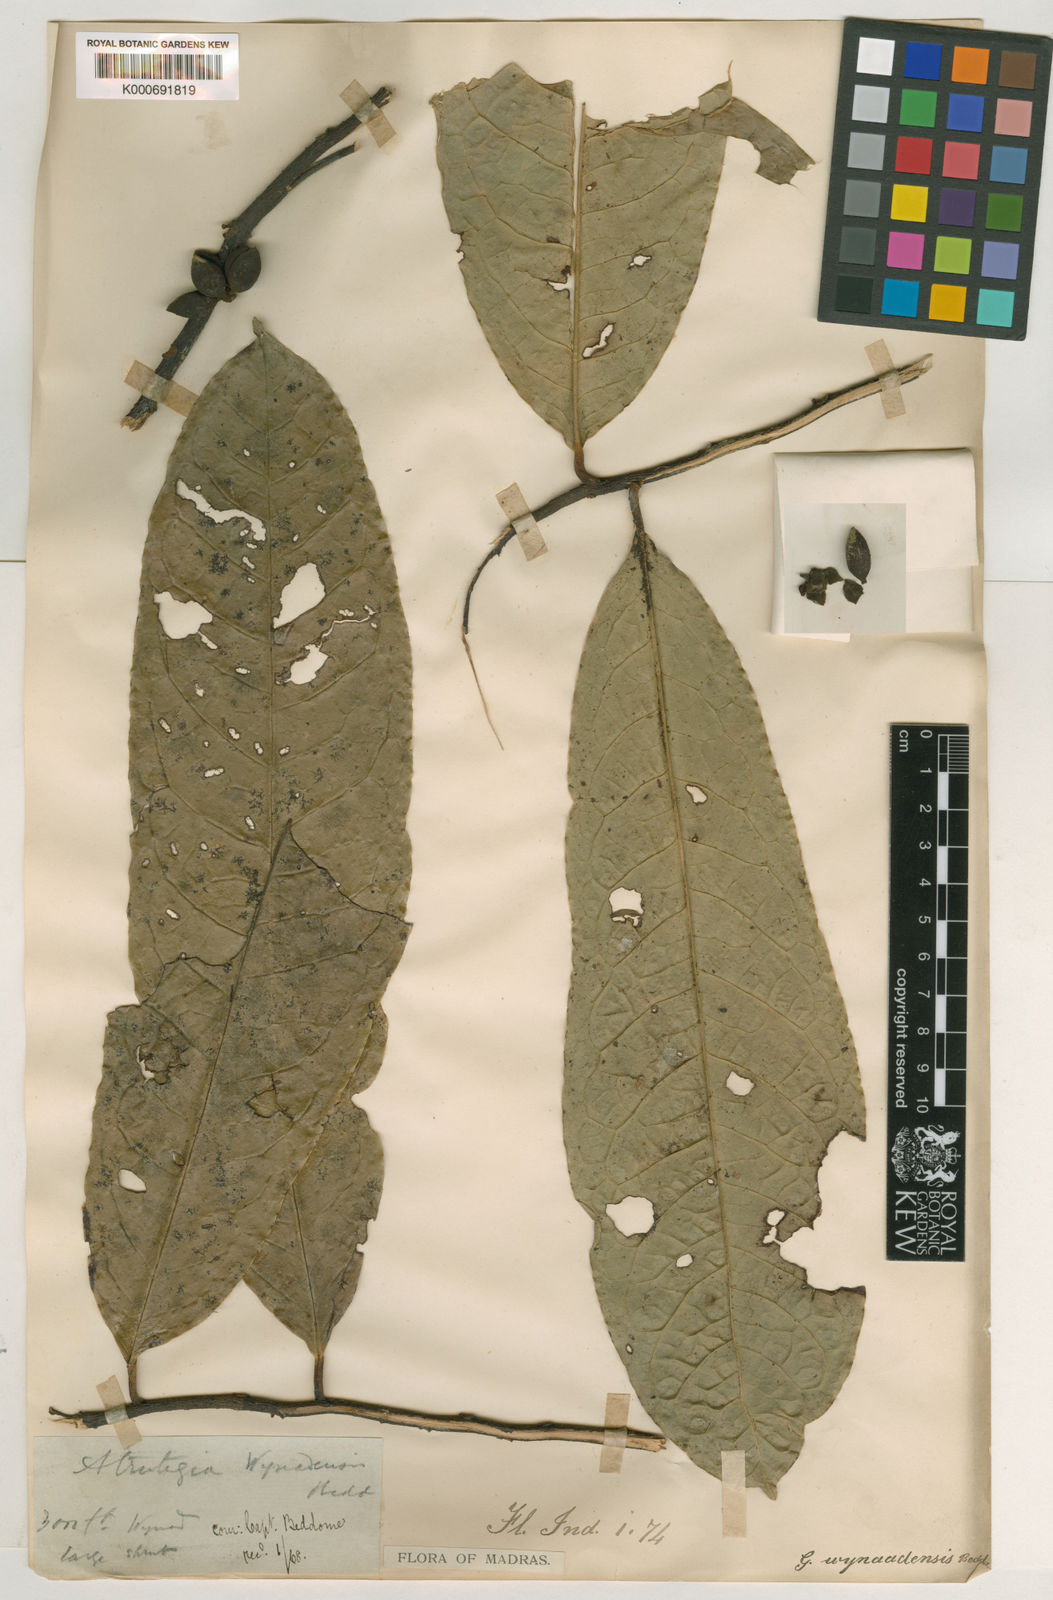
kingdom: Plantae
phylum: Tracheophyta
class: Magnoliopsida
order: Magnoliales
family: Annonaceae
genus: Goniothalamus
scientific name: Goniothalamus wynaadensis
